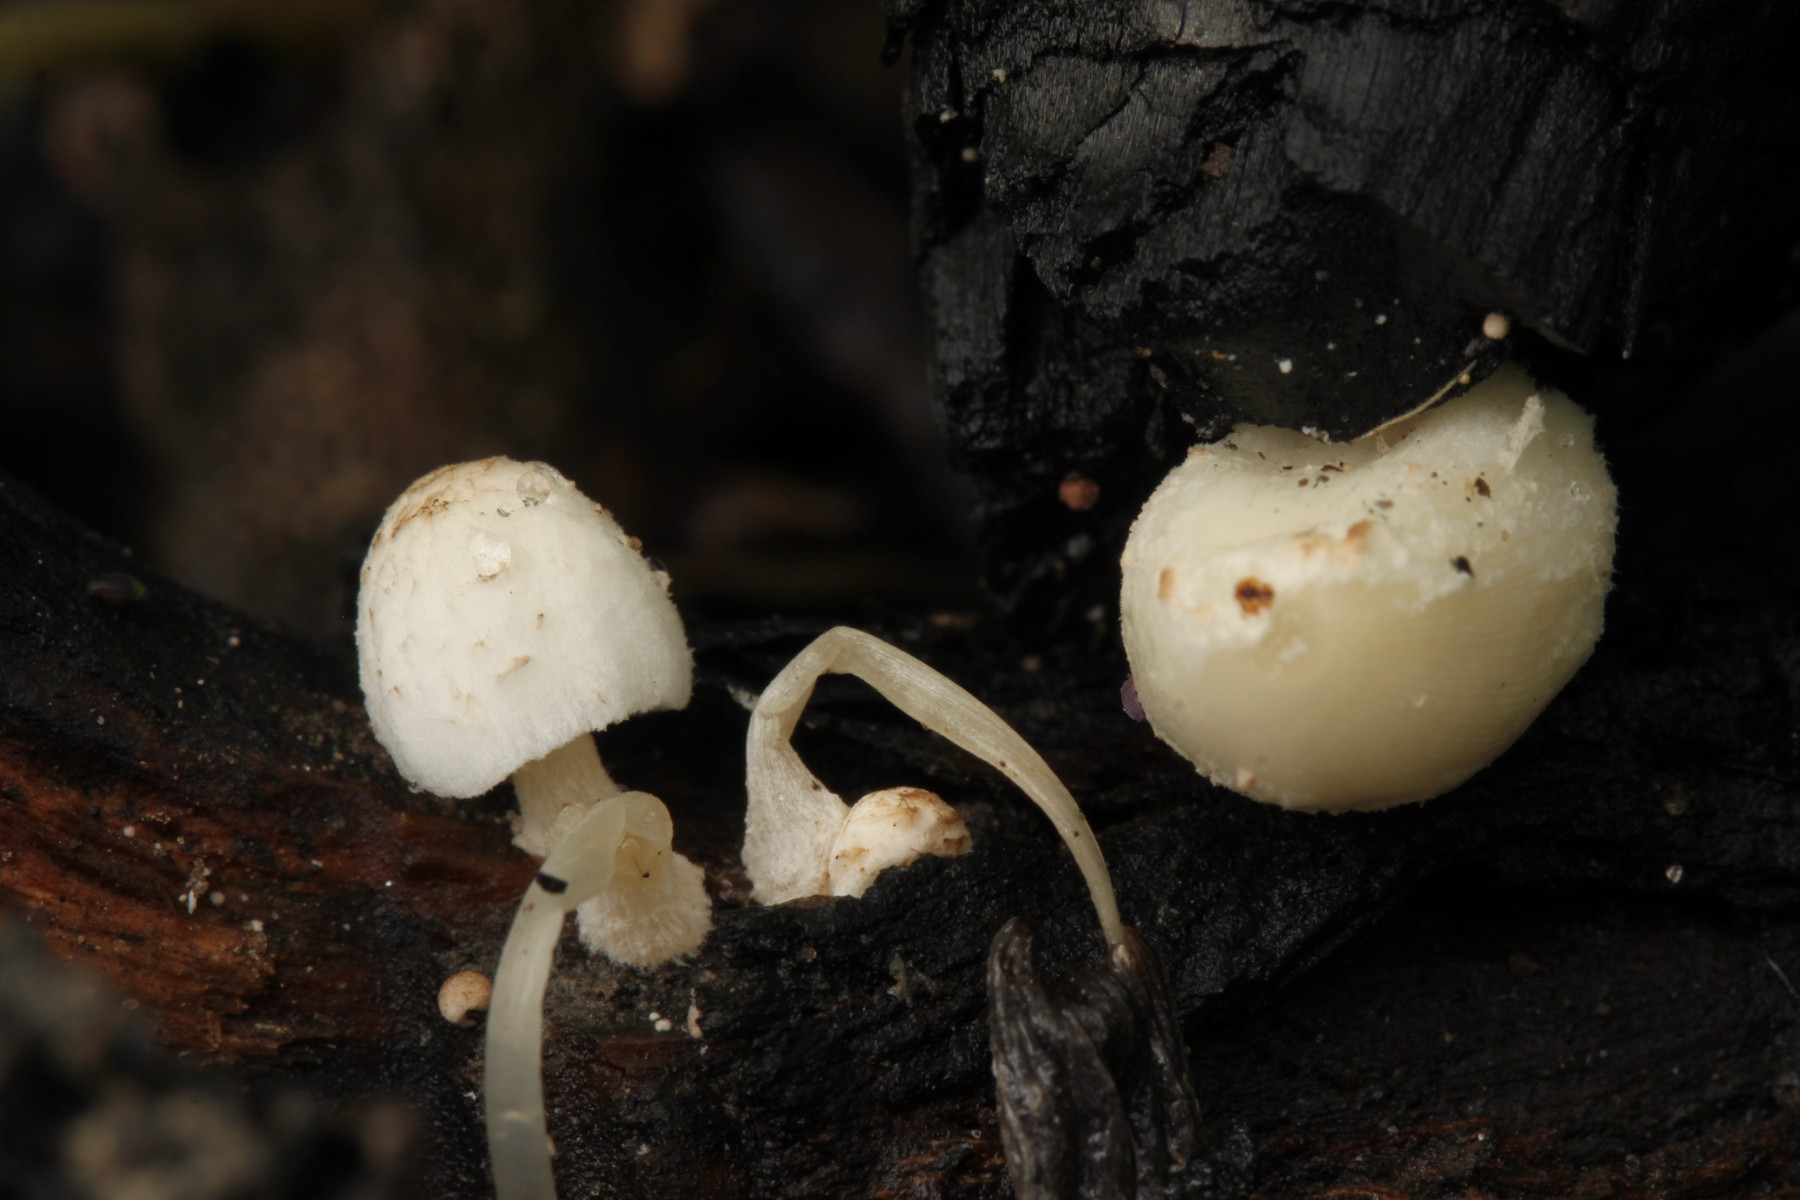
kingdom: Fungi
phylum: Basidiomycota
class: Agaricomycetes
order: Agaricales
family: Psathyrellaceae
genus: Coprinopsis
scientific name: Coprinopsis gonophylla
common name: bål-blækhat
